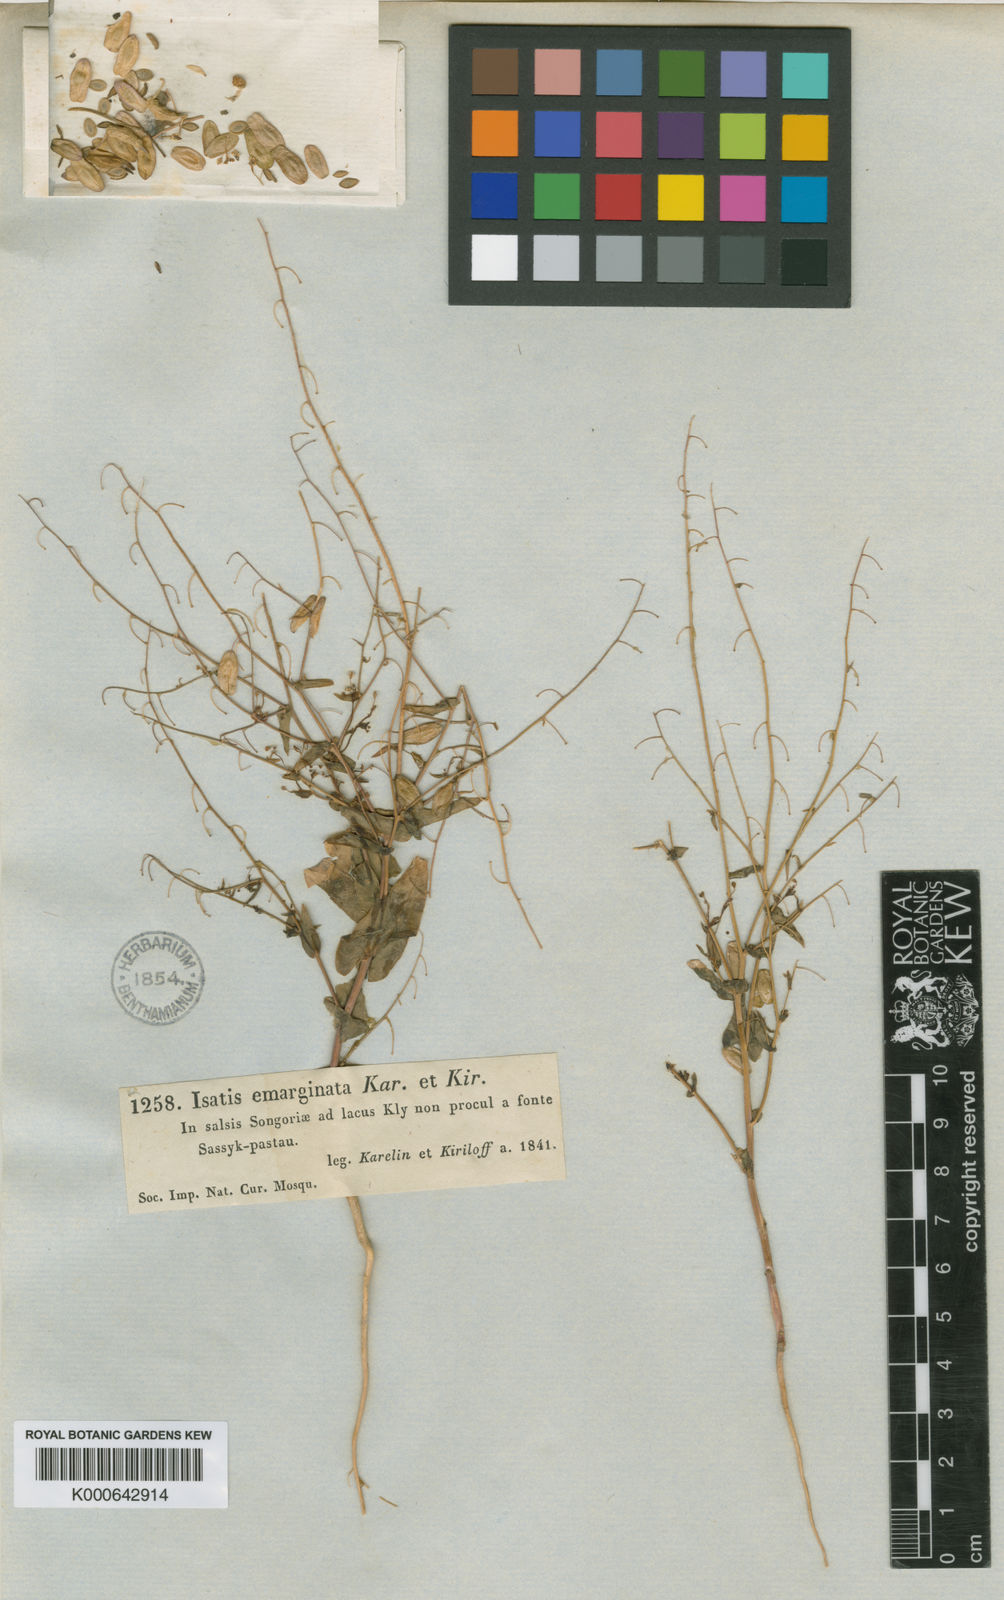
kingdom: Plantae
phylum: Tracheophyta
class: Magnoliopsida
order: Brassicales
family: Brassicaceae
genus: Isatis
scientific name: Isatis emarginata
